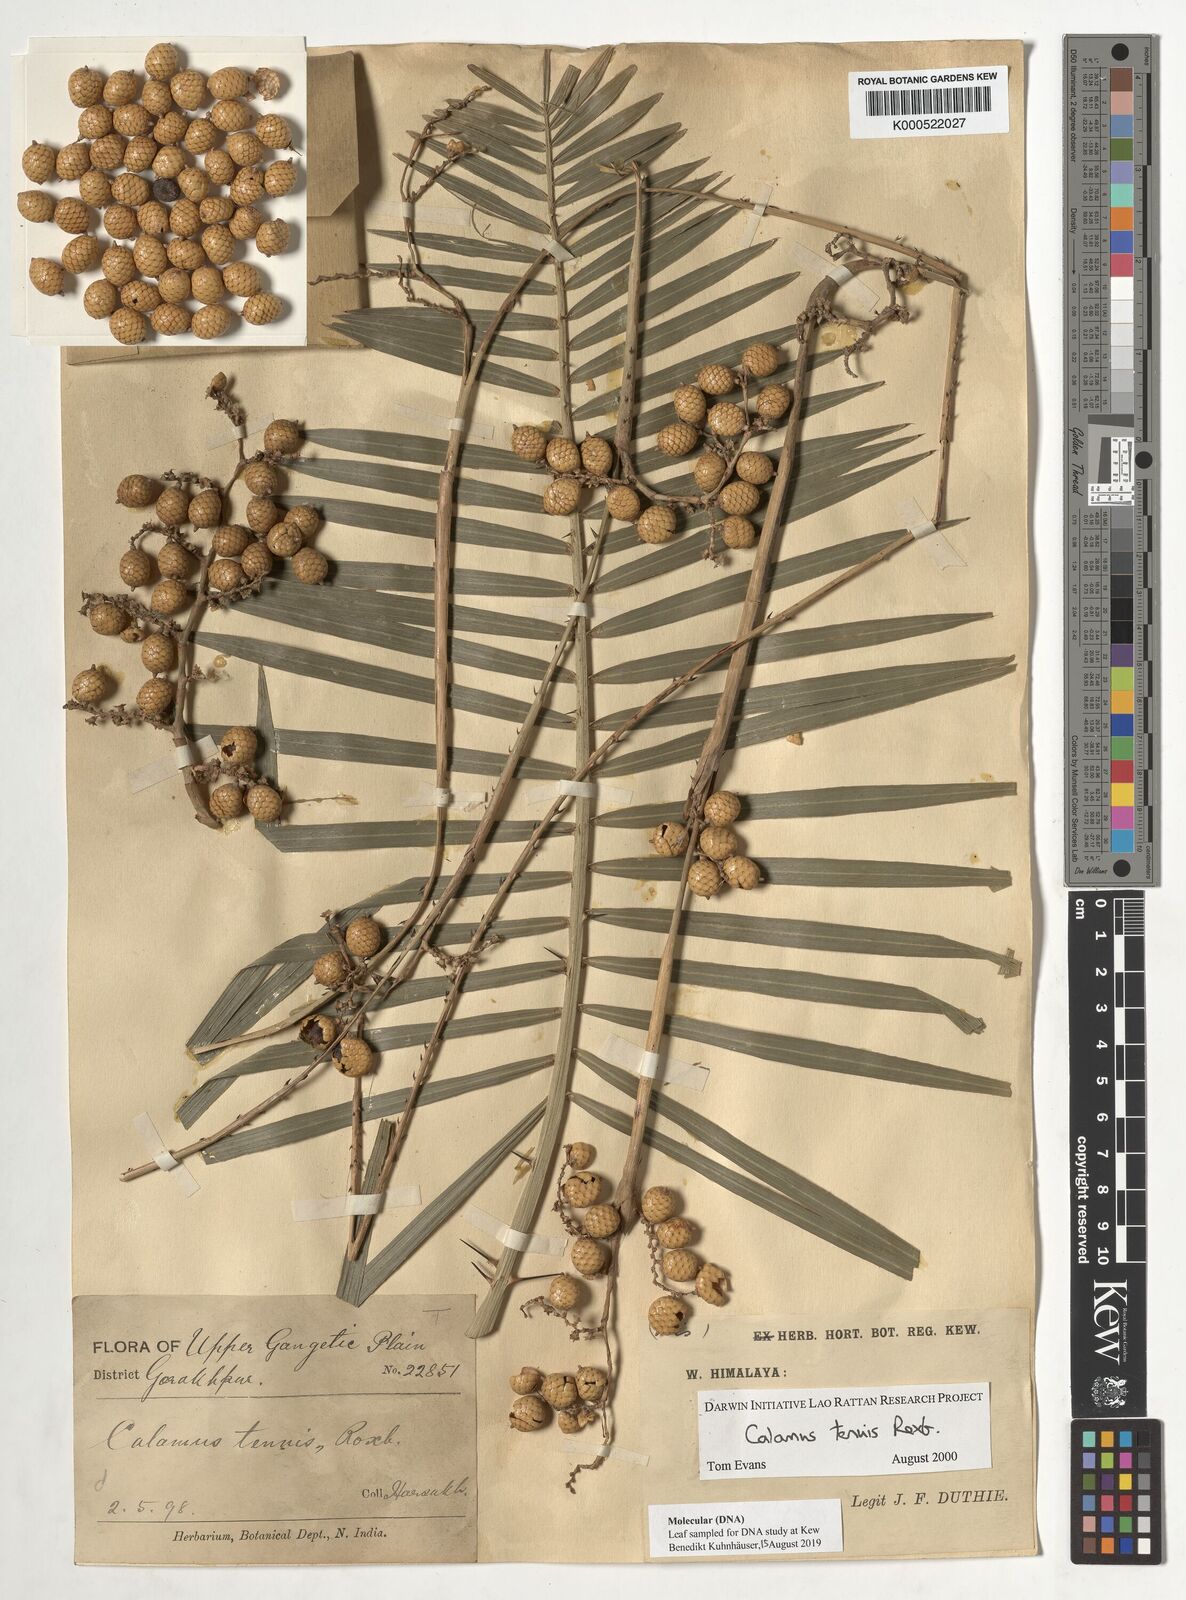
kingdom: Plantae
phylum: Tracheophyta
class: Liliopsida
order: Arecales
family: Arecaceae
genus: Calamus
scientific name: Calamus tenuis
